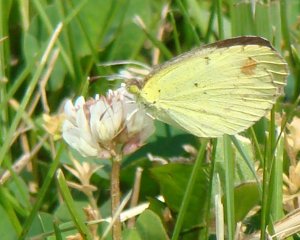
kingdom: Animalia
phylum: Arthropoda
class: Insecta
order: Lepidoptera
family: Pieridae
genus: Pyrisitia
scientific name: Pyrisitia lisa
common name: Little Yellow
